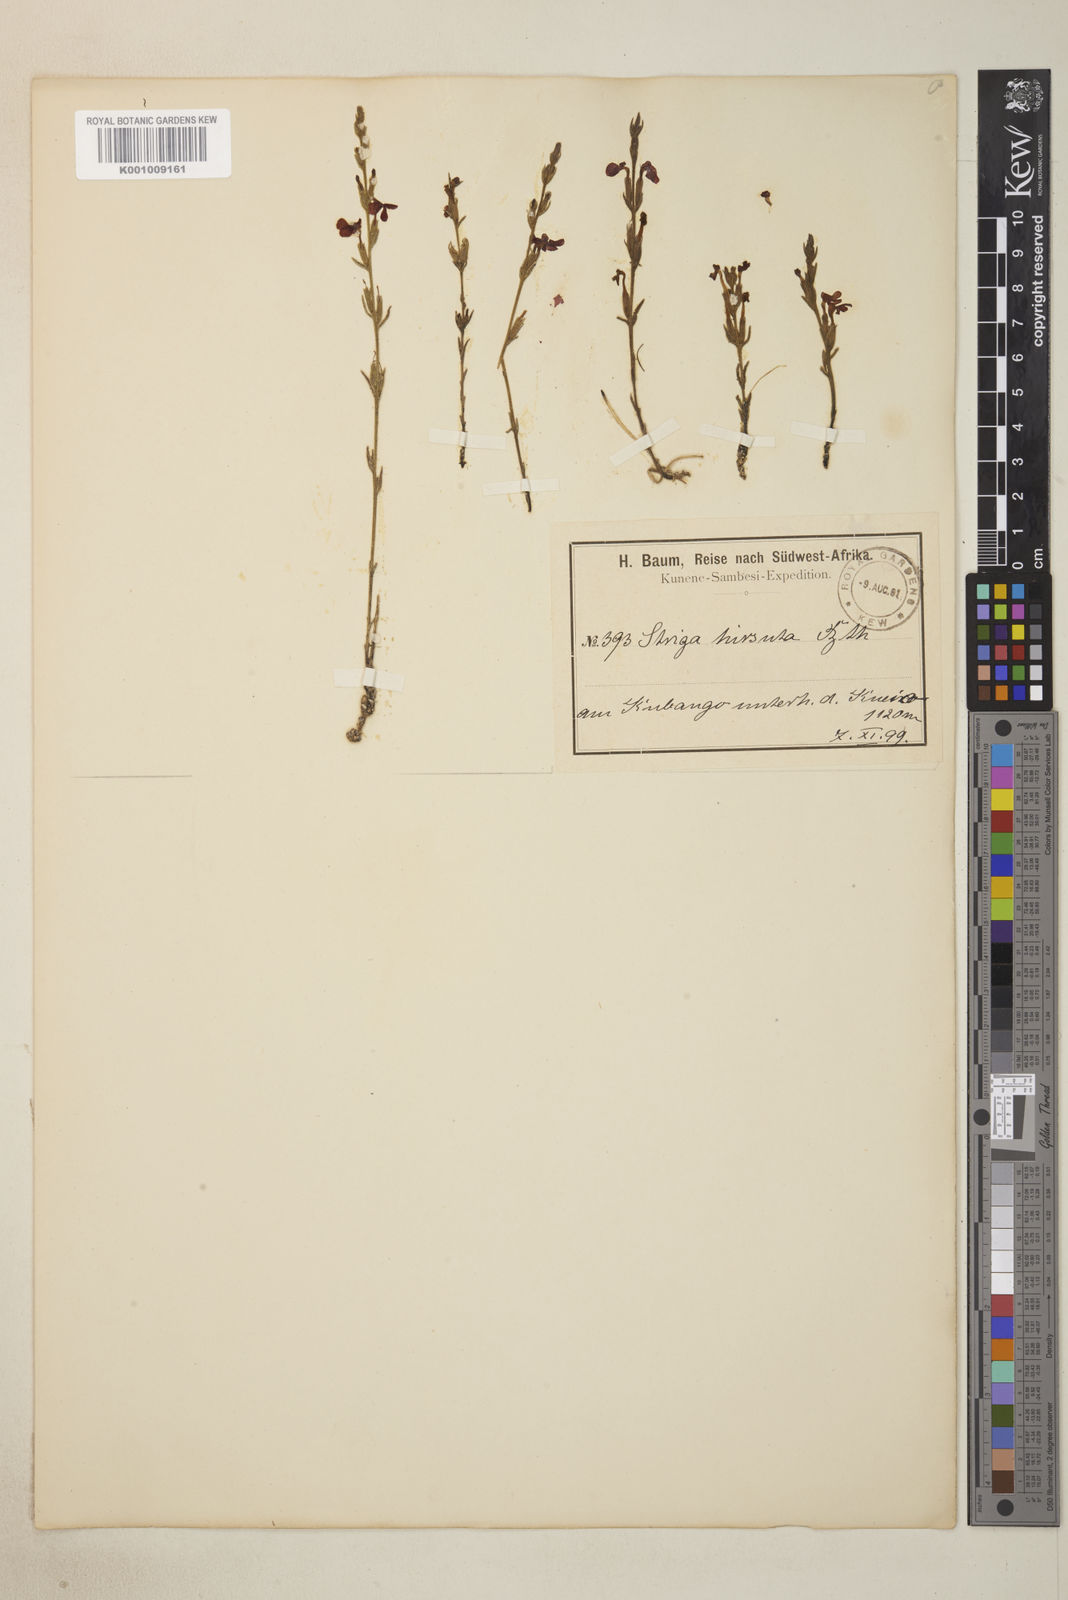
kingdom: Plantae
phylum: Tracheophyta
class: Magnoliopsida
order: Lamiales
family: Orobanchaceae
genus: Striga
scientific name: Striga asiatica
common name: Asiatic witchweed
